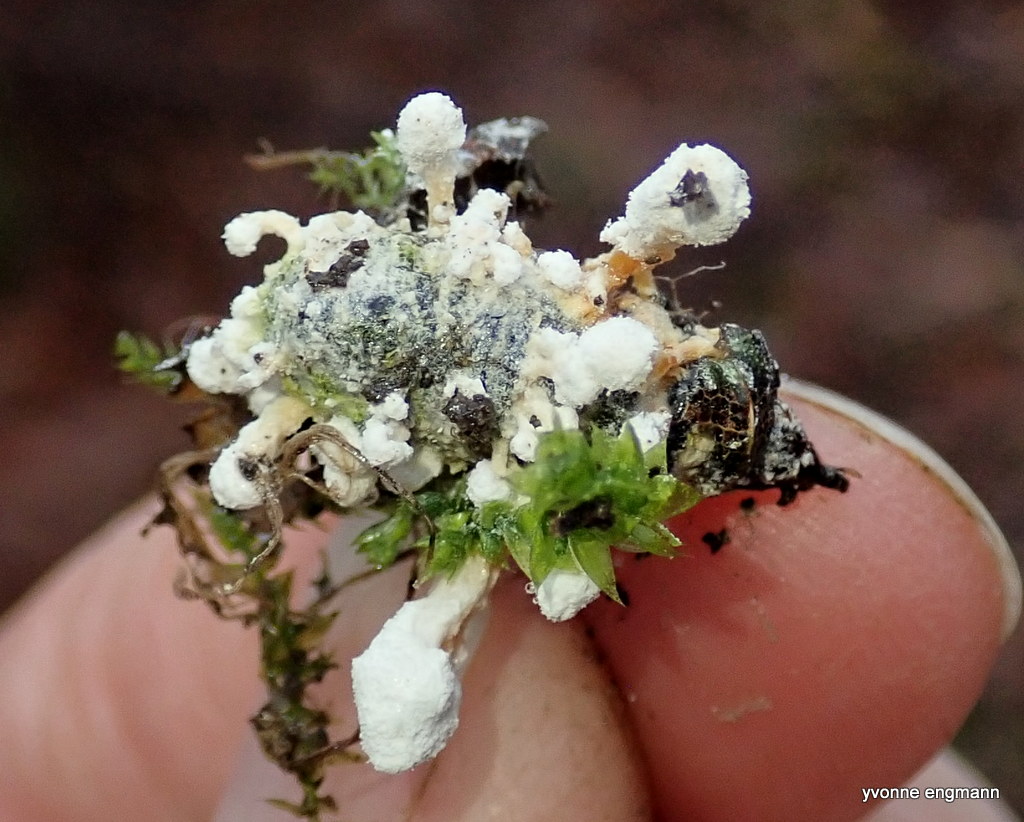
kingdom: Fungi
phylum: Ascomycota
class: Sordariomycetes
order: Hypocreales
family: Cordycipitaceae
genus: Cordyceps
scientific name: Cordyceps farinosa
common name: melet snyltekølle
